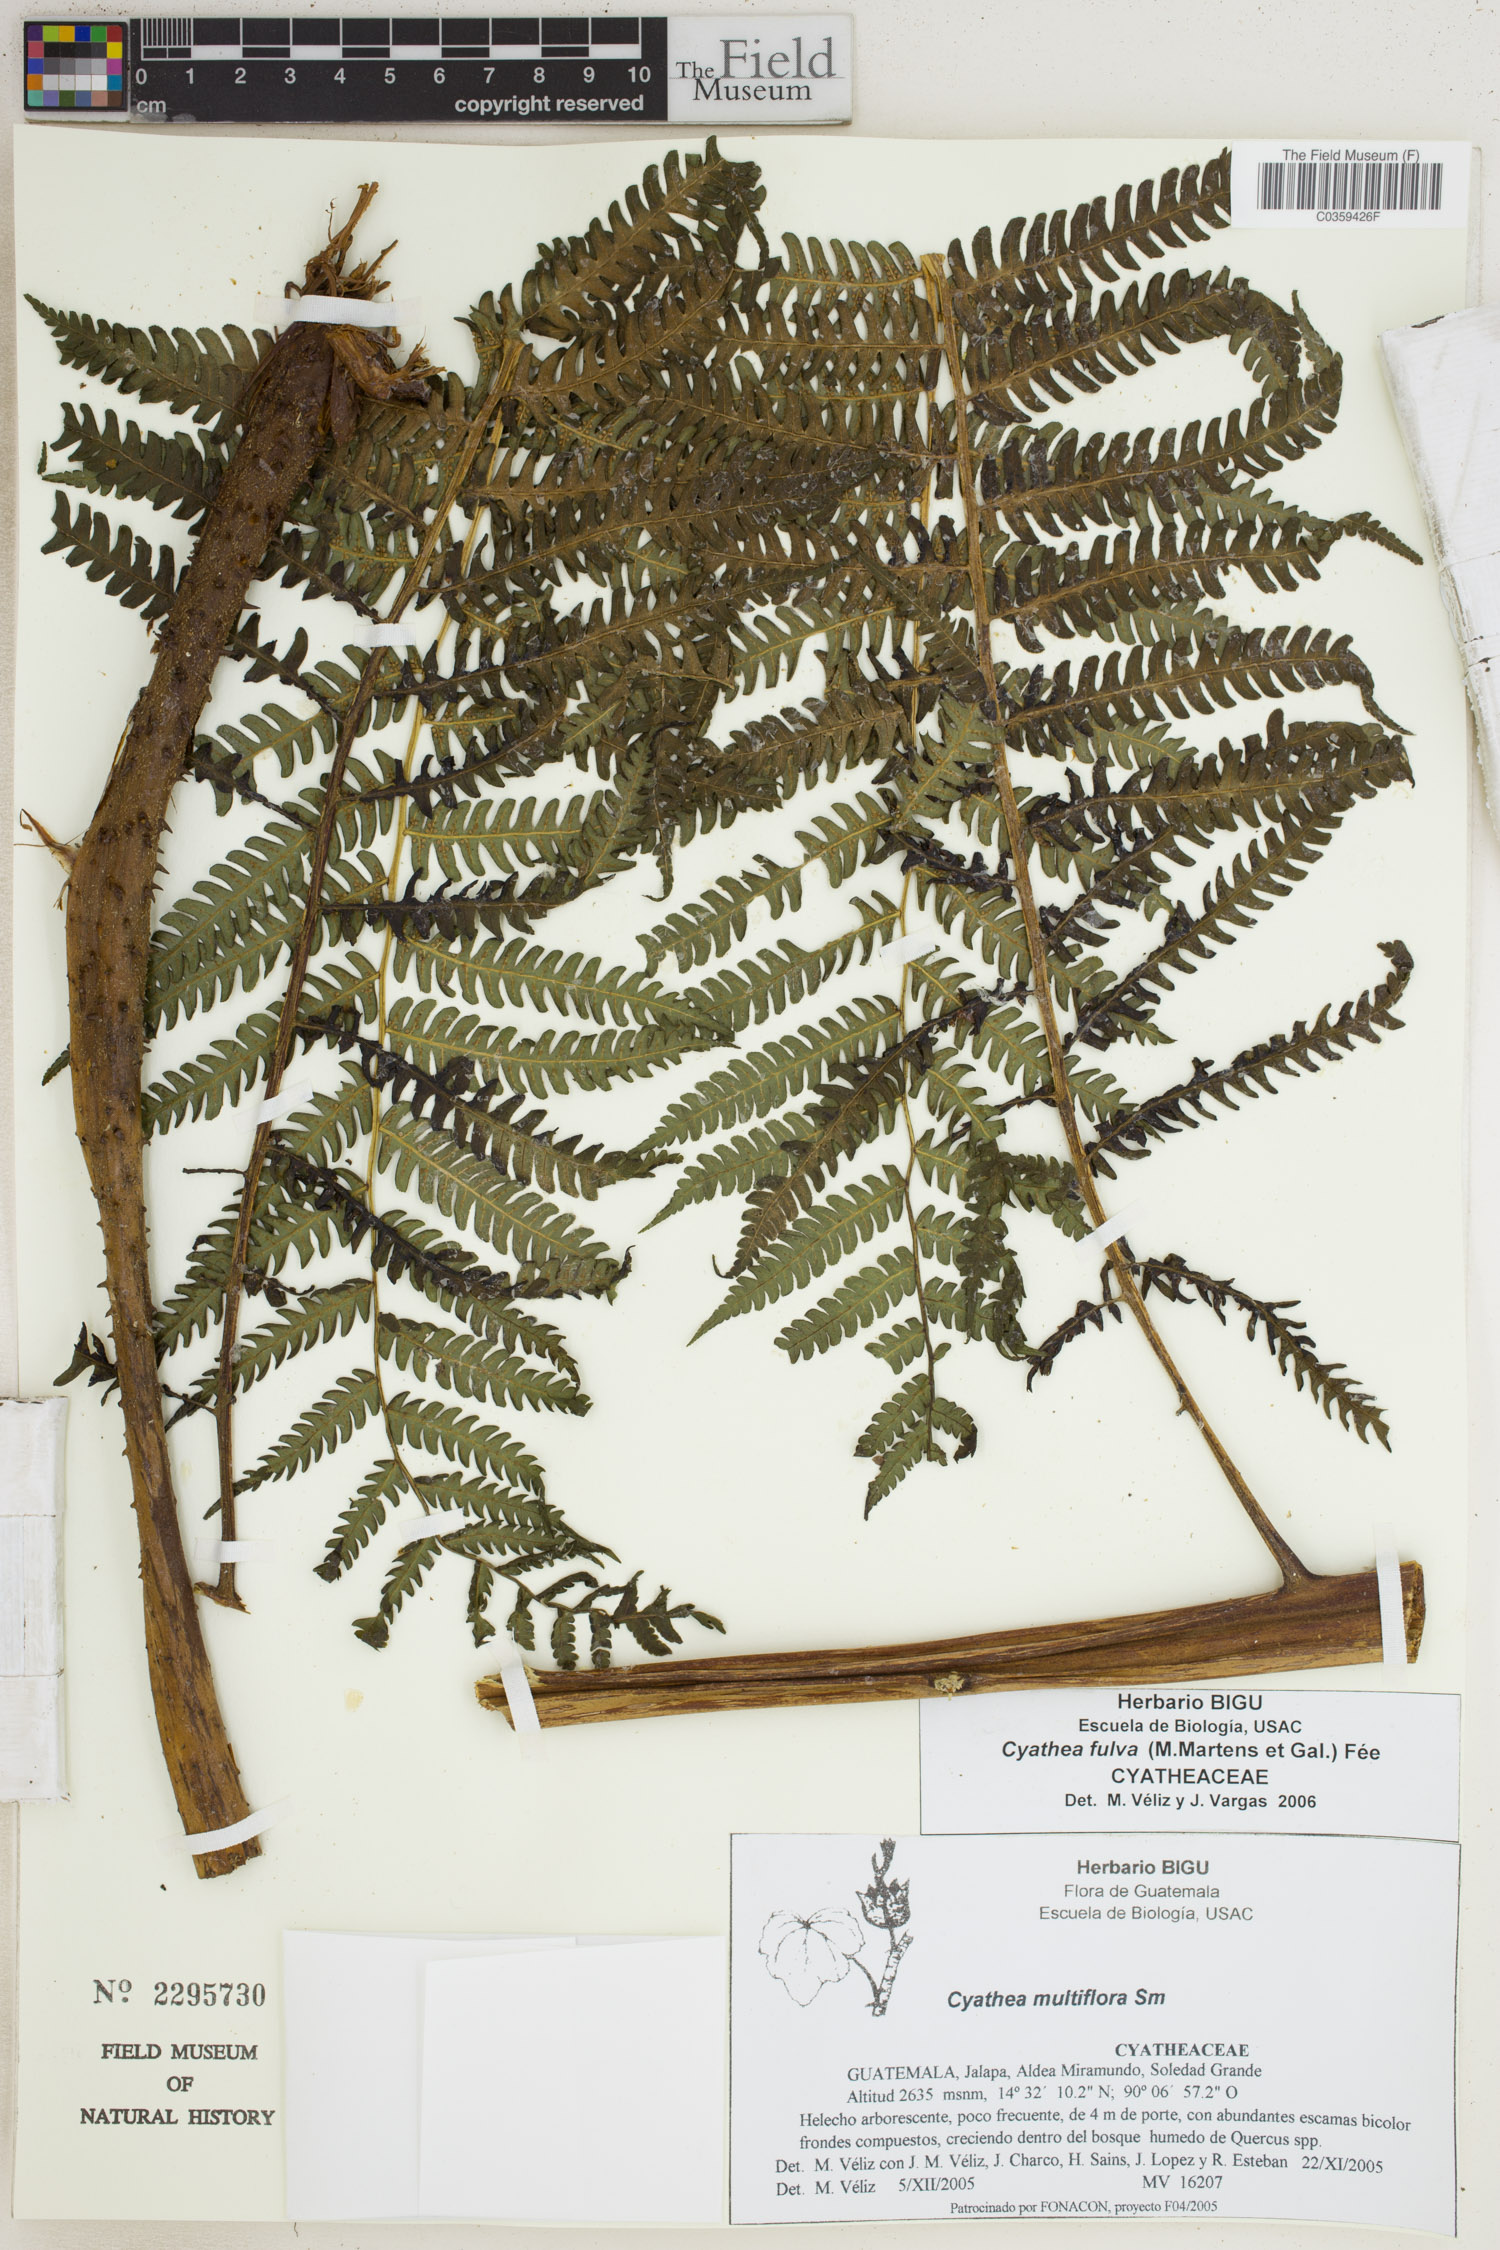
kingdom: Plantae
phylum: Tracheophyta
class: Polypodiopsida
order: Cyatheales
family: Cyatheaceae
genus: Cyathea
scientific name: Cyathea fulva
